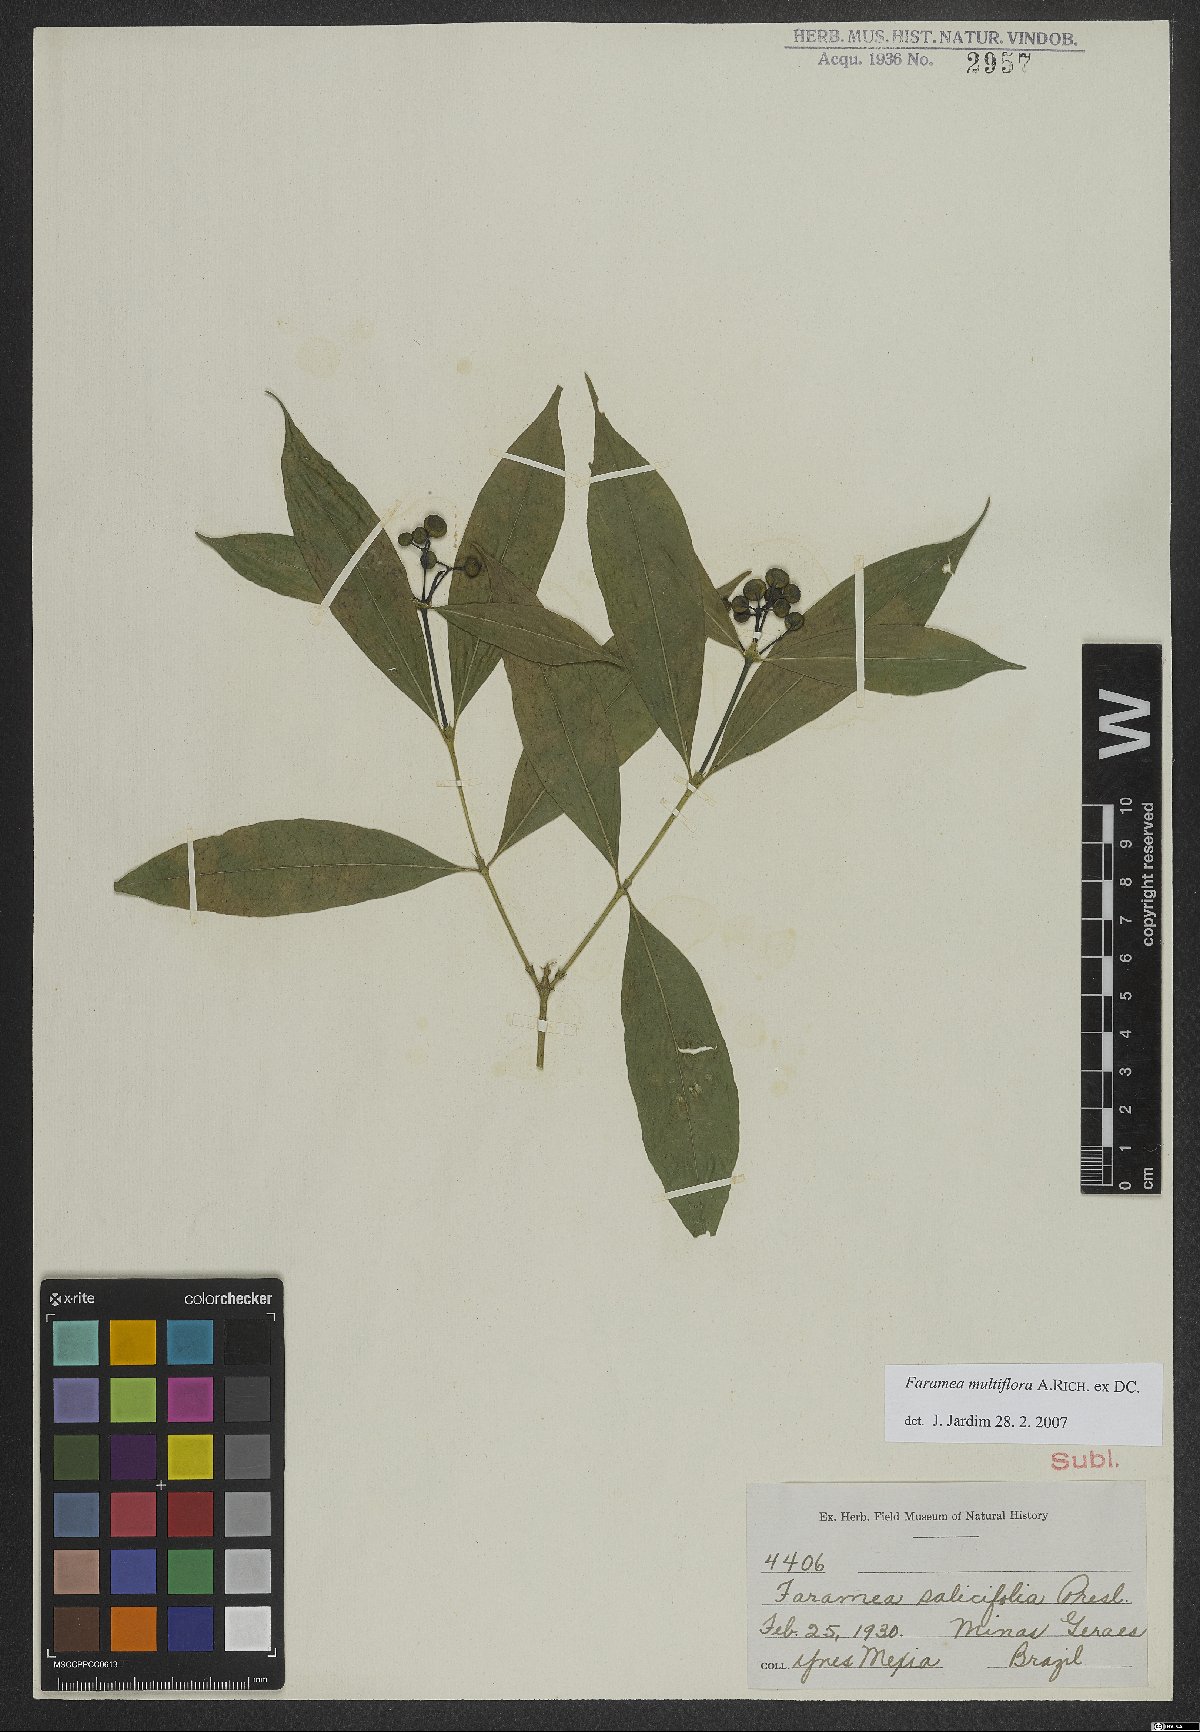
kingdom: Plantae
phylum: Tracheophyta
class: Magnoliopsida
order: Gentianales
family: Rubiaceae
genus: Faramea
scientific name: Faramea multiflora
